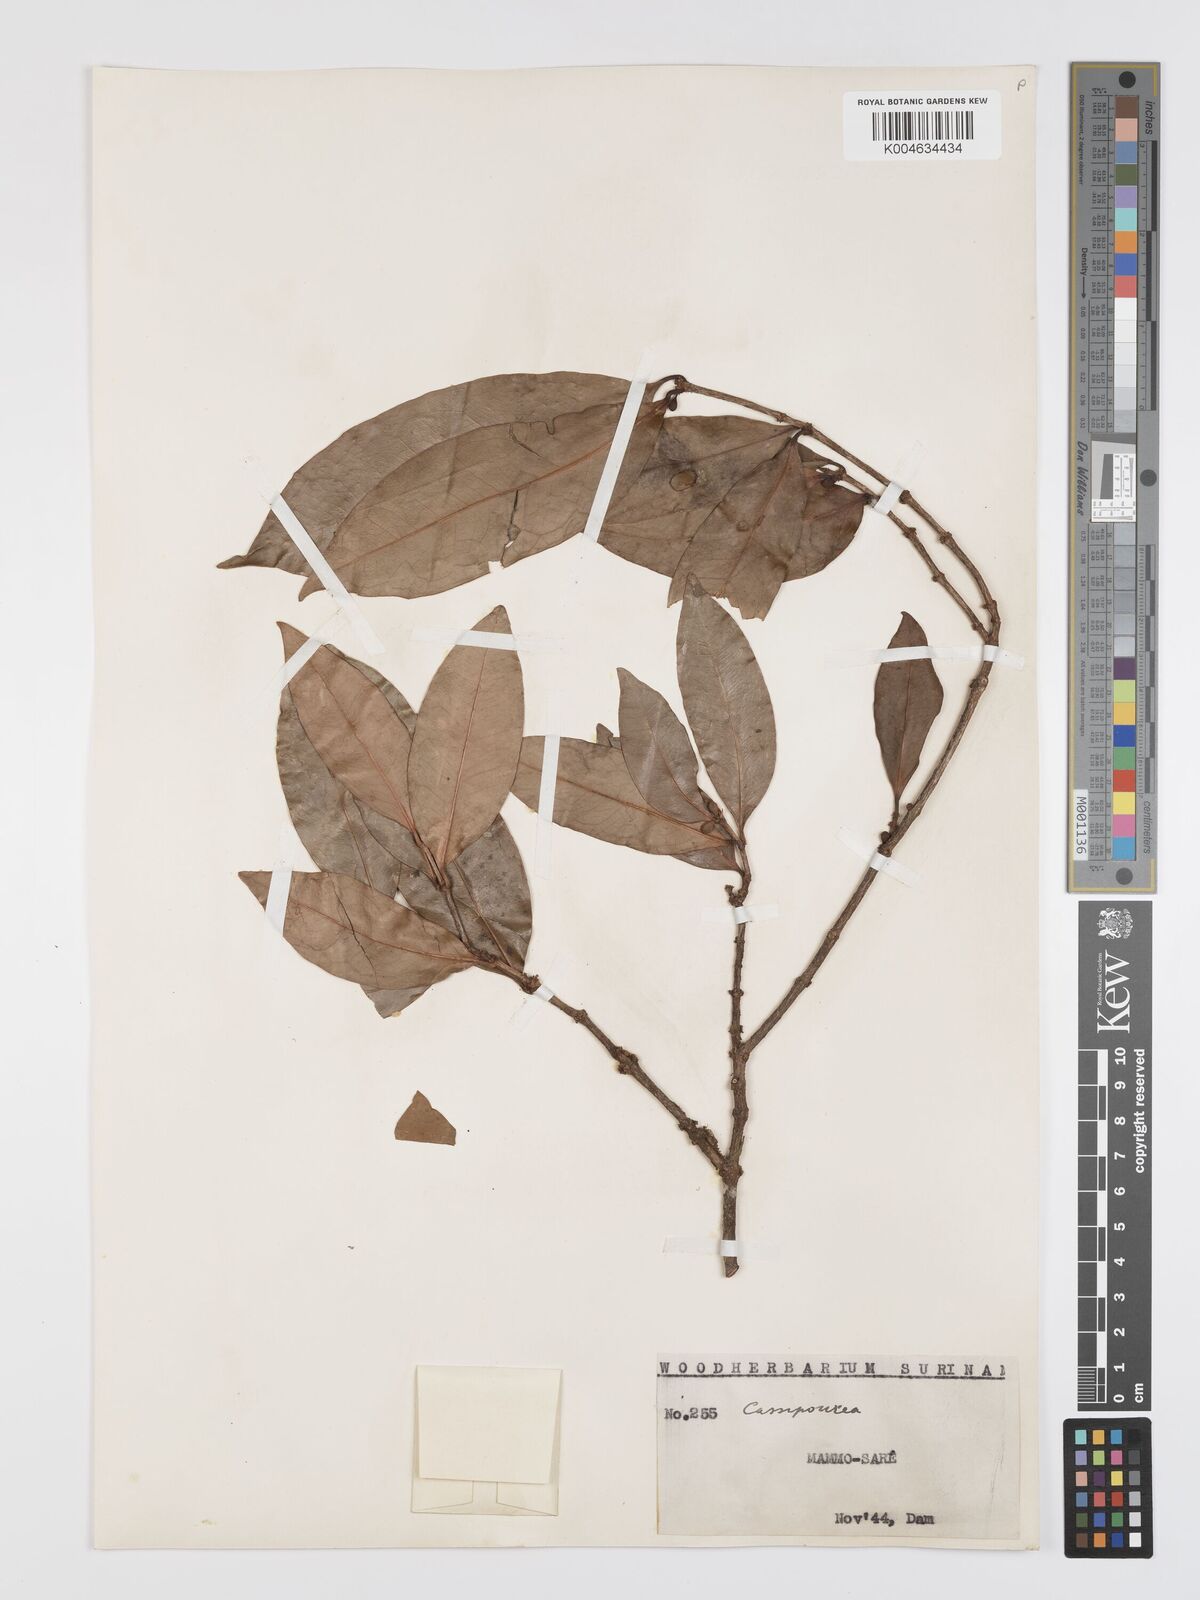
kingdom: Plantae
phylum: Tracheophyta
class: Magnoliopsida
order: Malpighiales
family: Rhizophoraceae
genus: Cassipourea
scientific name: Cassipourea guianensis
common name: Bastard waterwood
